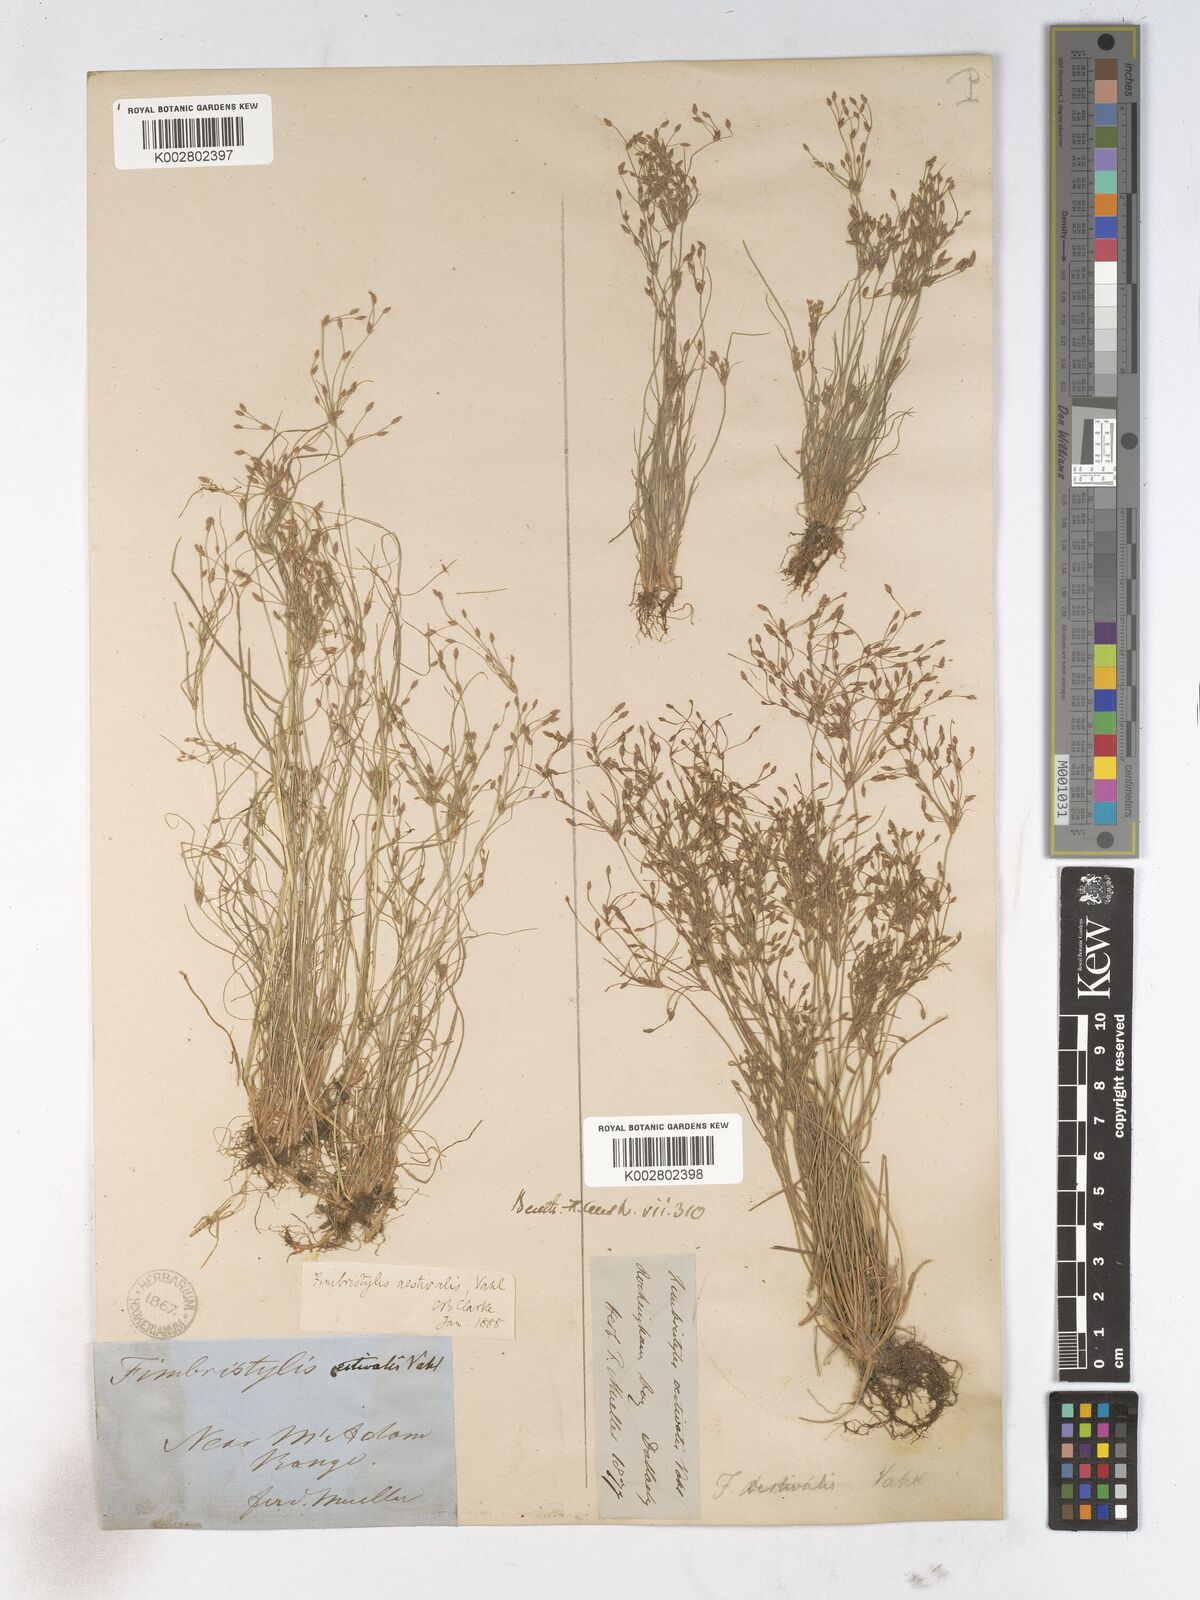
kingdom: Plantae
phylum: Tracheophyta
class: Liliopsida
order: Poales
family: Cyperaceae
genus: Fimbristylis
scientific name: Fimbristylis aestivalis
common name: Summer fimbry
